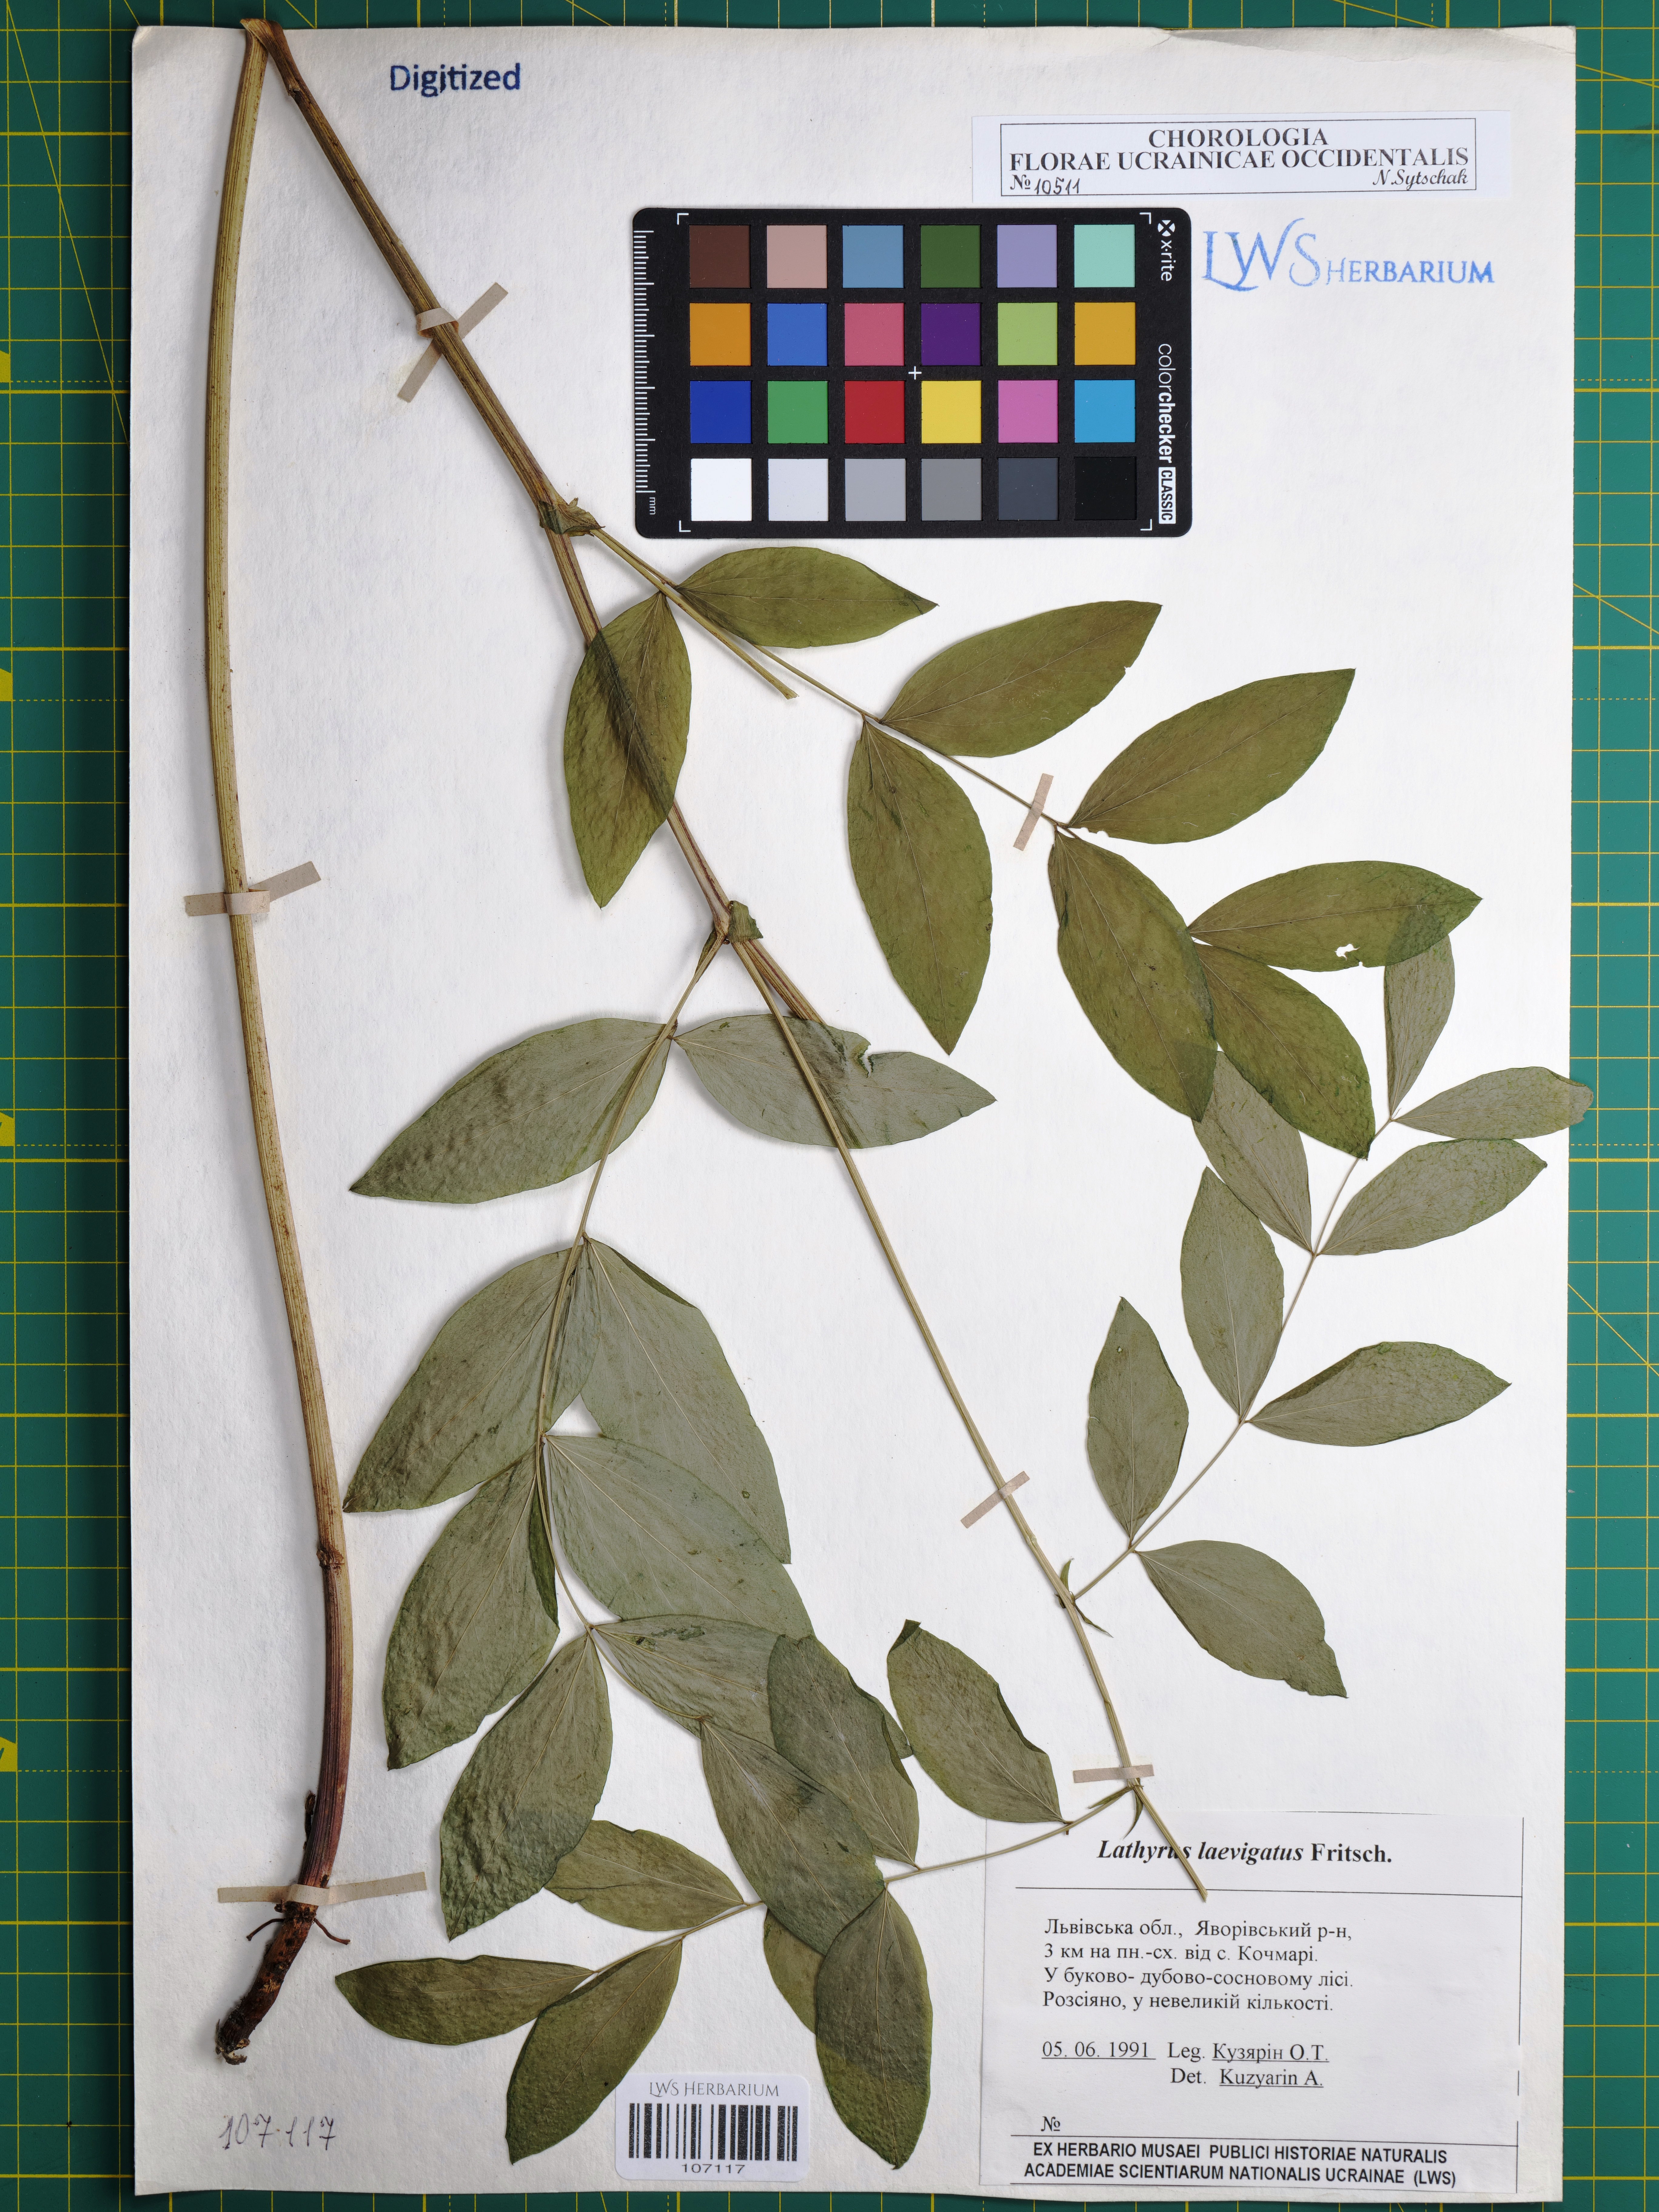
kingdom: Plantae
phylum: Tracheophyta
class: Magnoliopsida
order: Fabales
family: Fabaceae
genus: Lathyrus
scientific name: Lathyrus laevigatus
